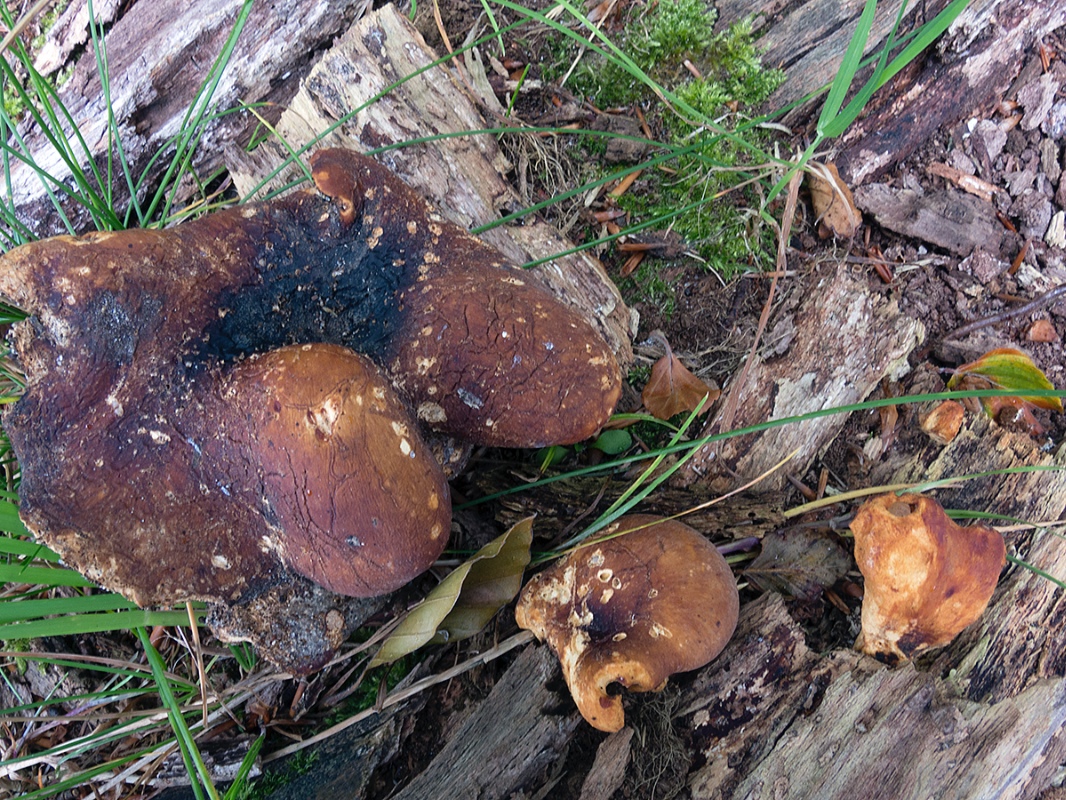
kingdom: Fungi
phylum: Basidiomycota
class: Agaricomycetes
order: Polyporales
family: Polyporaceae
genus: Picipes
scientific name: Picipes badius
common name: kastaniebrun stilkporesvamp
